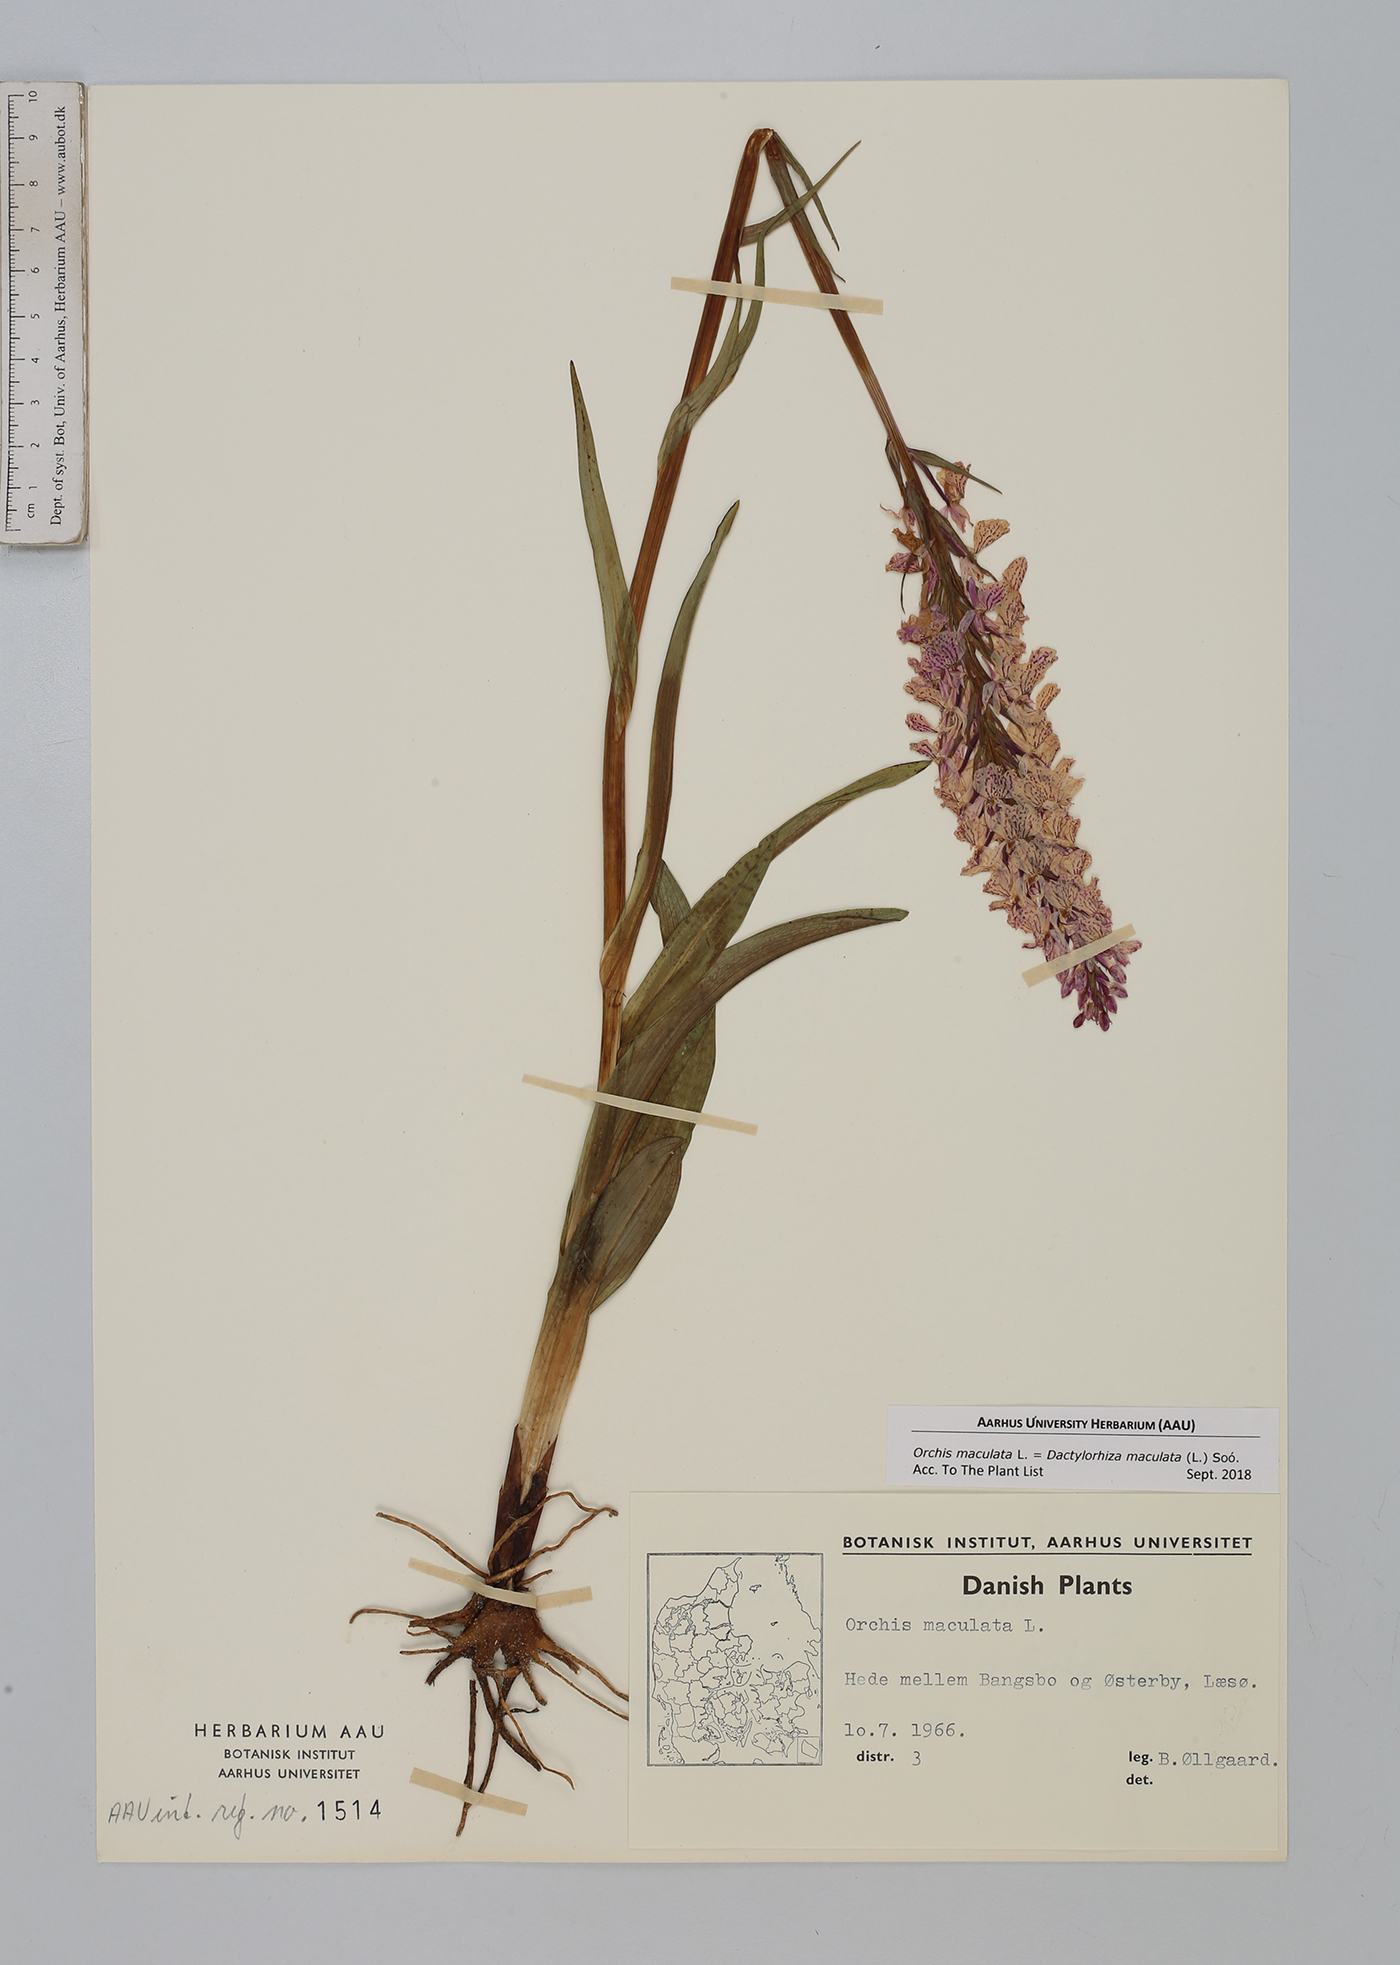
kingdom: Plantae
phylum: Tracheophyta
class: Liliopsida
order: Asparagales
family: Orchidaceae
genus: Dactylorhiza
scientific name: Dactylorhiza maculata
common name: Heath spotted-orchid
